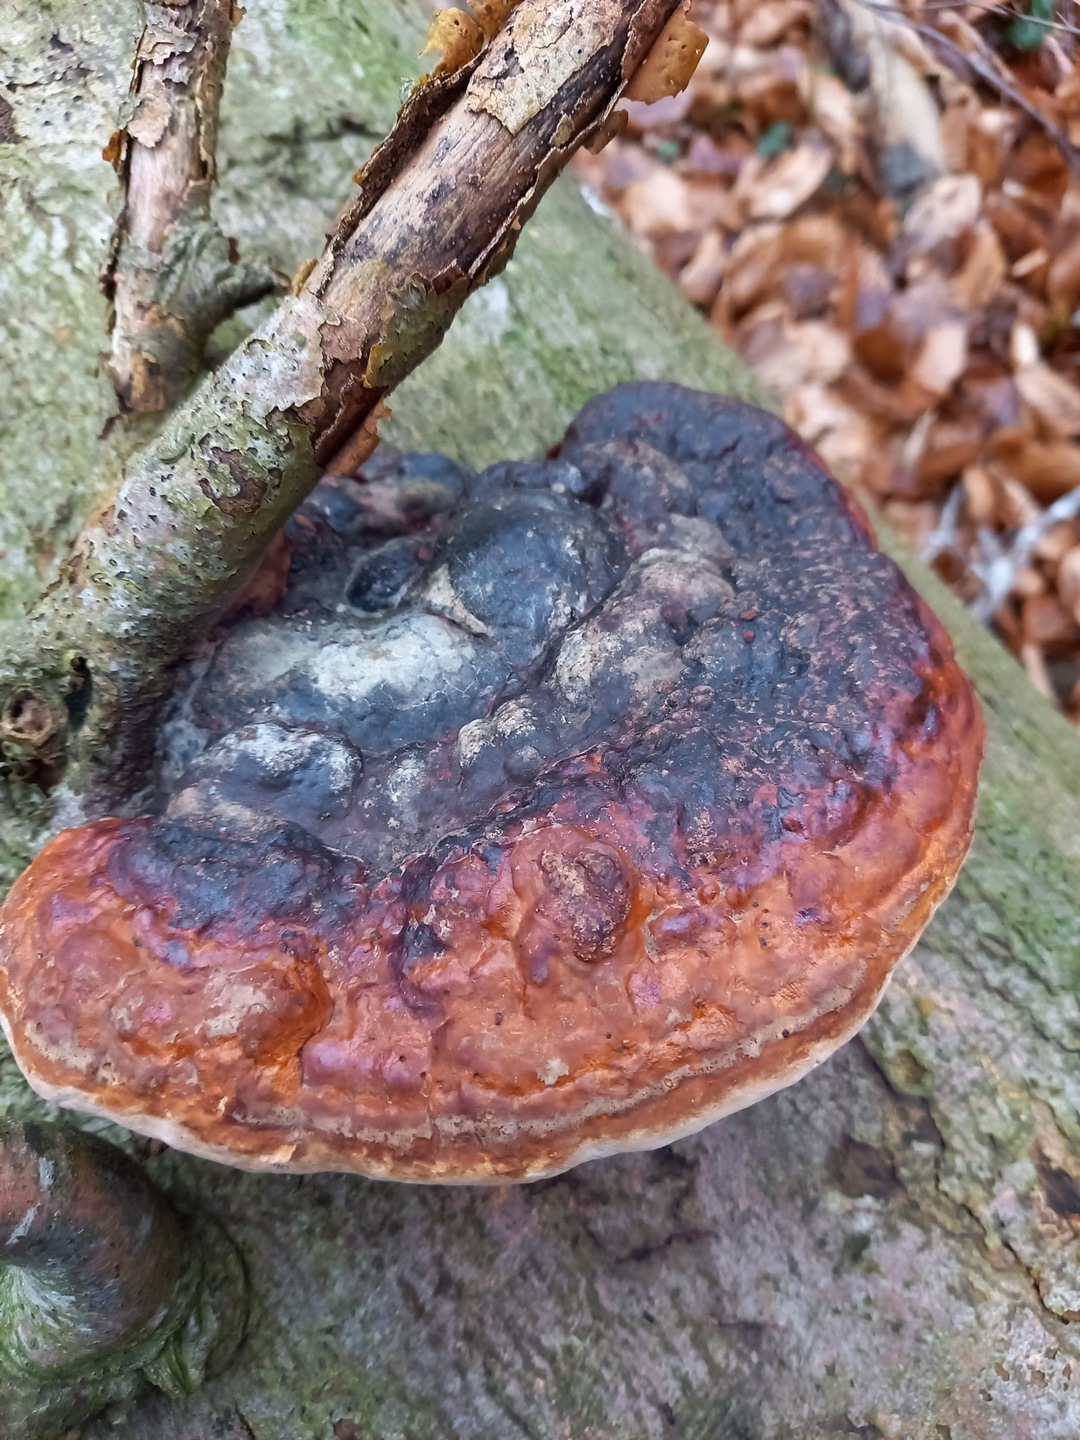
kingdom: Fungi
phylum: Basidiomycota
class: Agaricomycetes
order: Polyporales
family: Fomitopsidaceae
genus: Fomitopsis
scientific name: Fomitopsis pinicola
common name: randbæltet hovporesvamp
